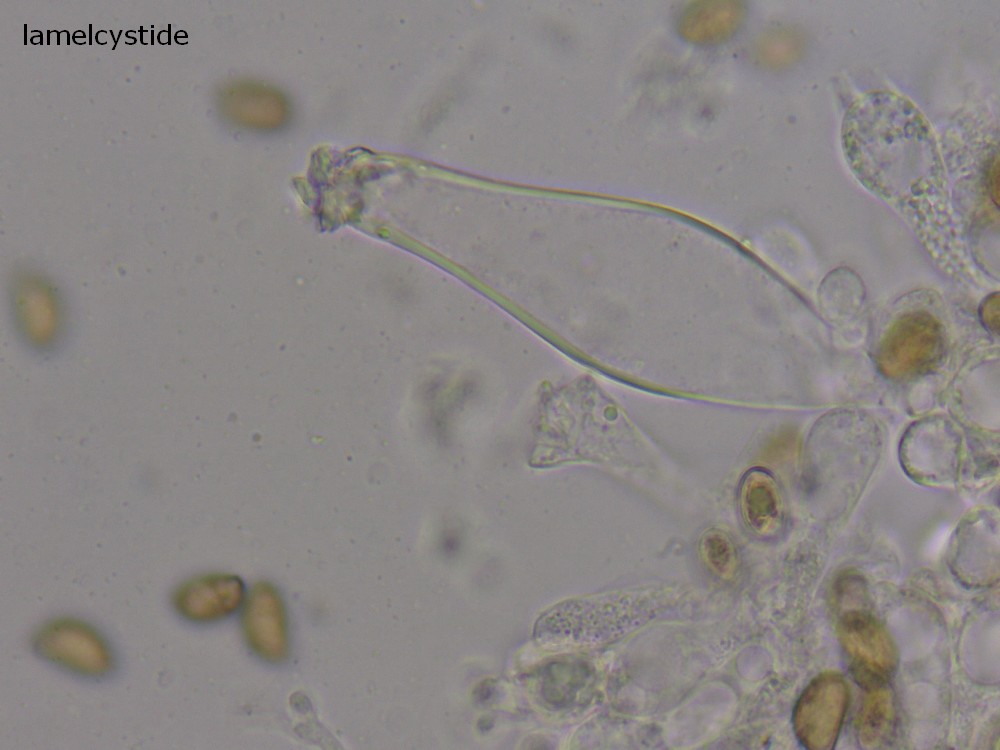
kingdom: Fungi
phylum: Basidiomycota
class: Agaricomycetes
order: Agaricales
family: Inocybaceae
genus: Inocybe
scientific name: Inocybe
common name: trævlhat
